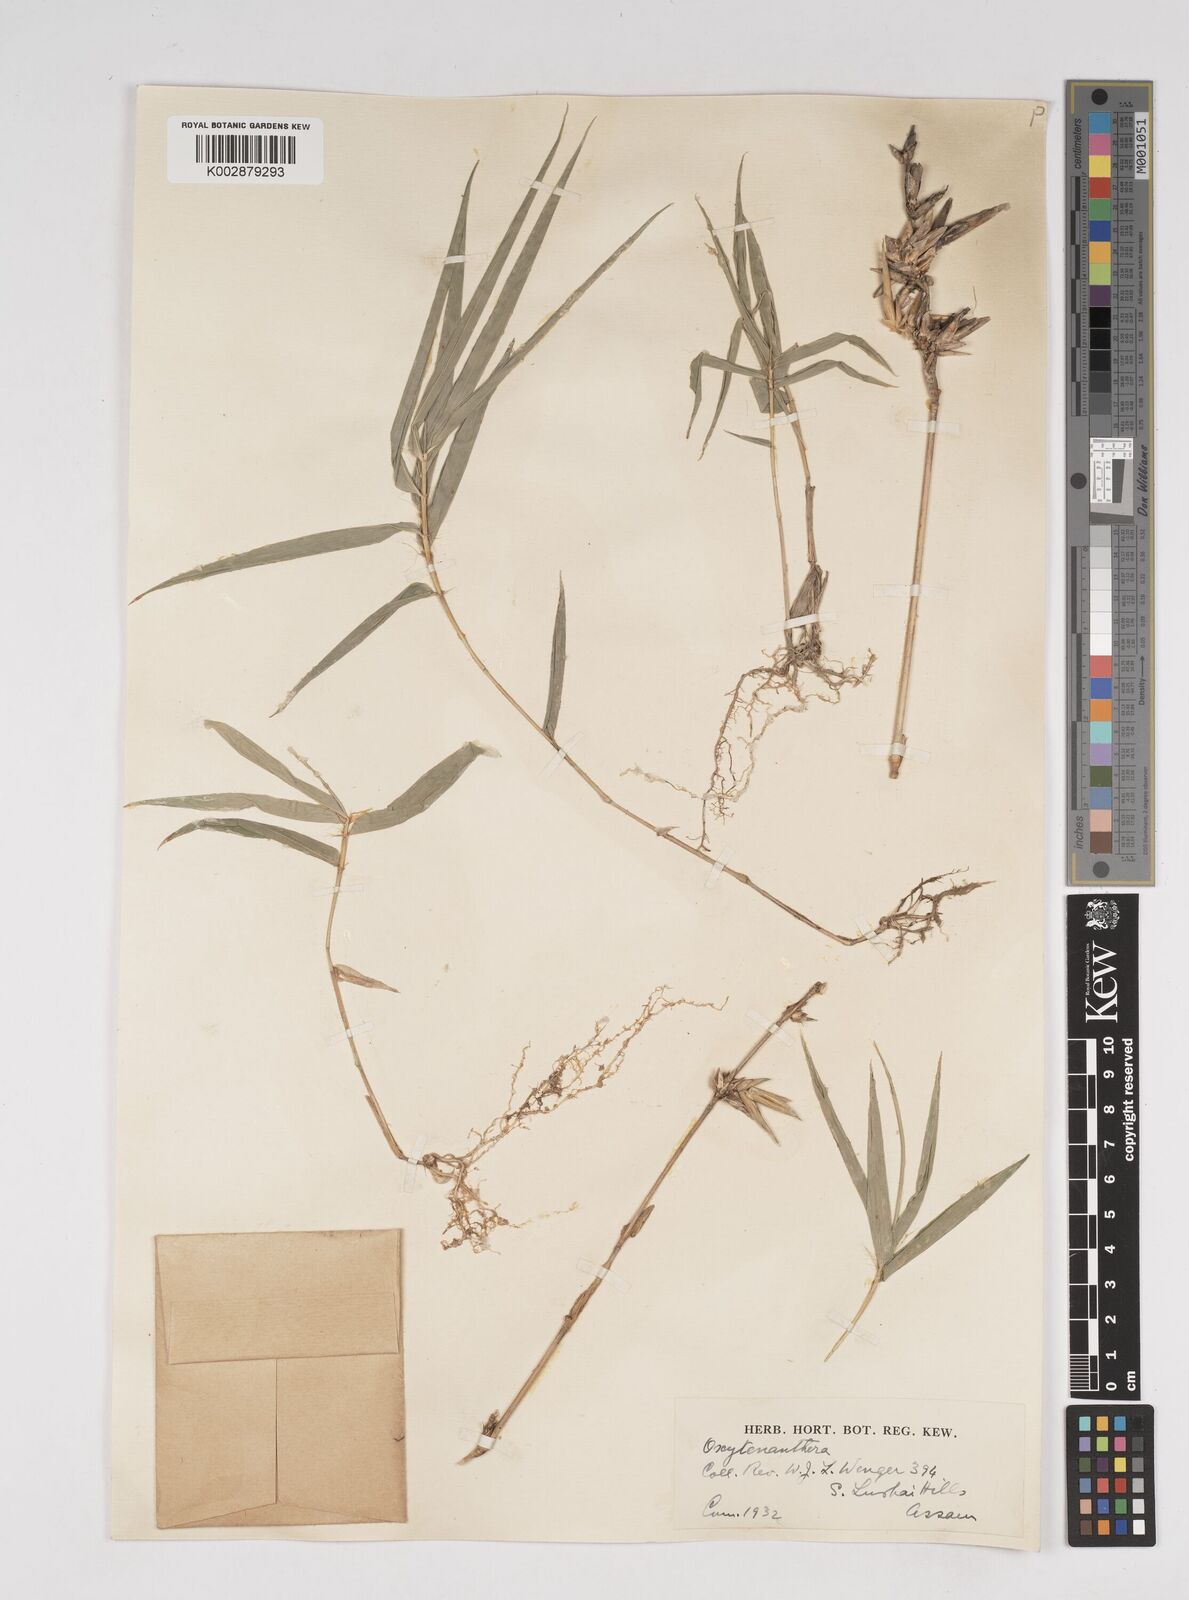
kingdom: Plantae
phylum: Tracheophyta
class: Liliopsida
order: Poales
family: Poaceae
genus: Dendrocalamus
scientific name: Dendrocalamus
